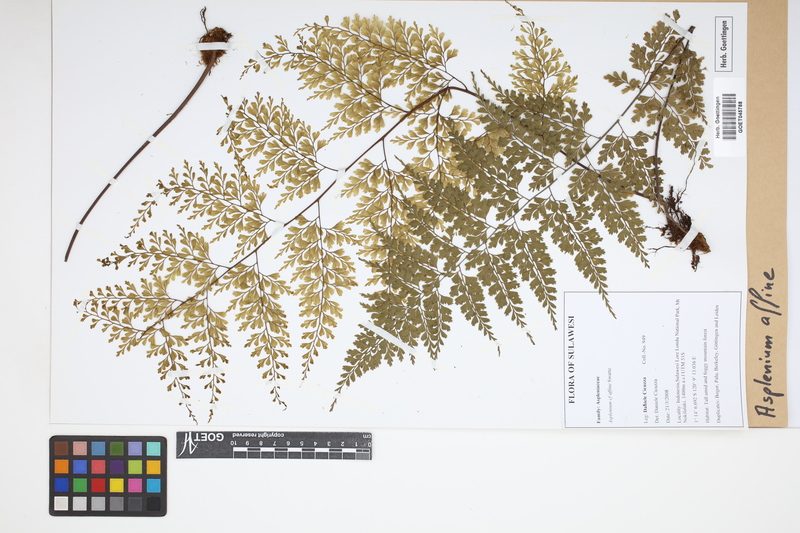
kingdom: Plantae
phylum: Tracheophyta
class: Polypodiopsida
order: Polypodiales
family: Aspleniaceae
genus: Asplenium
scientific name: Asplenium affine
